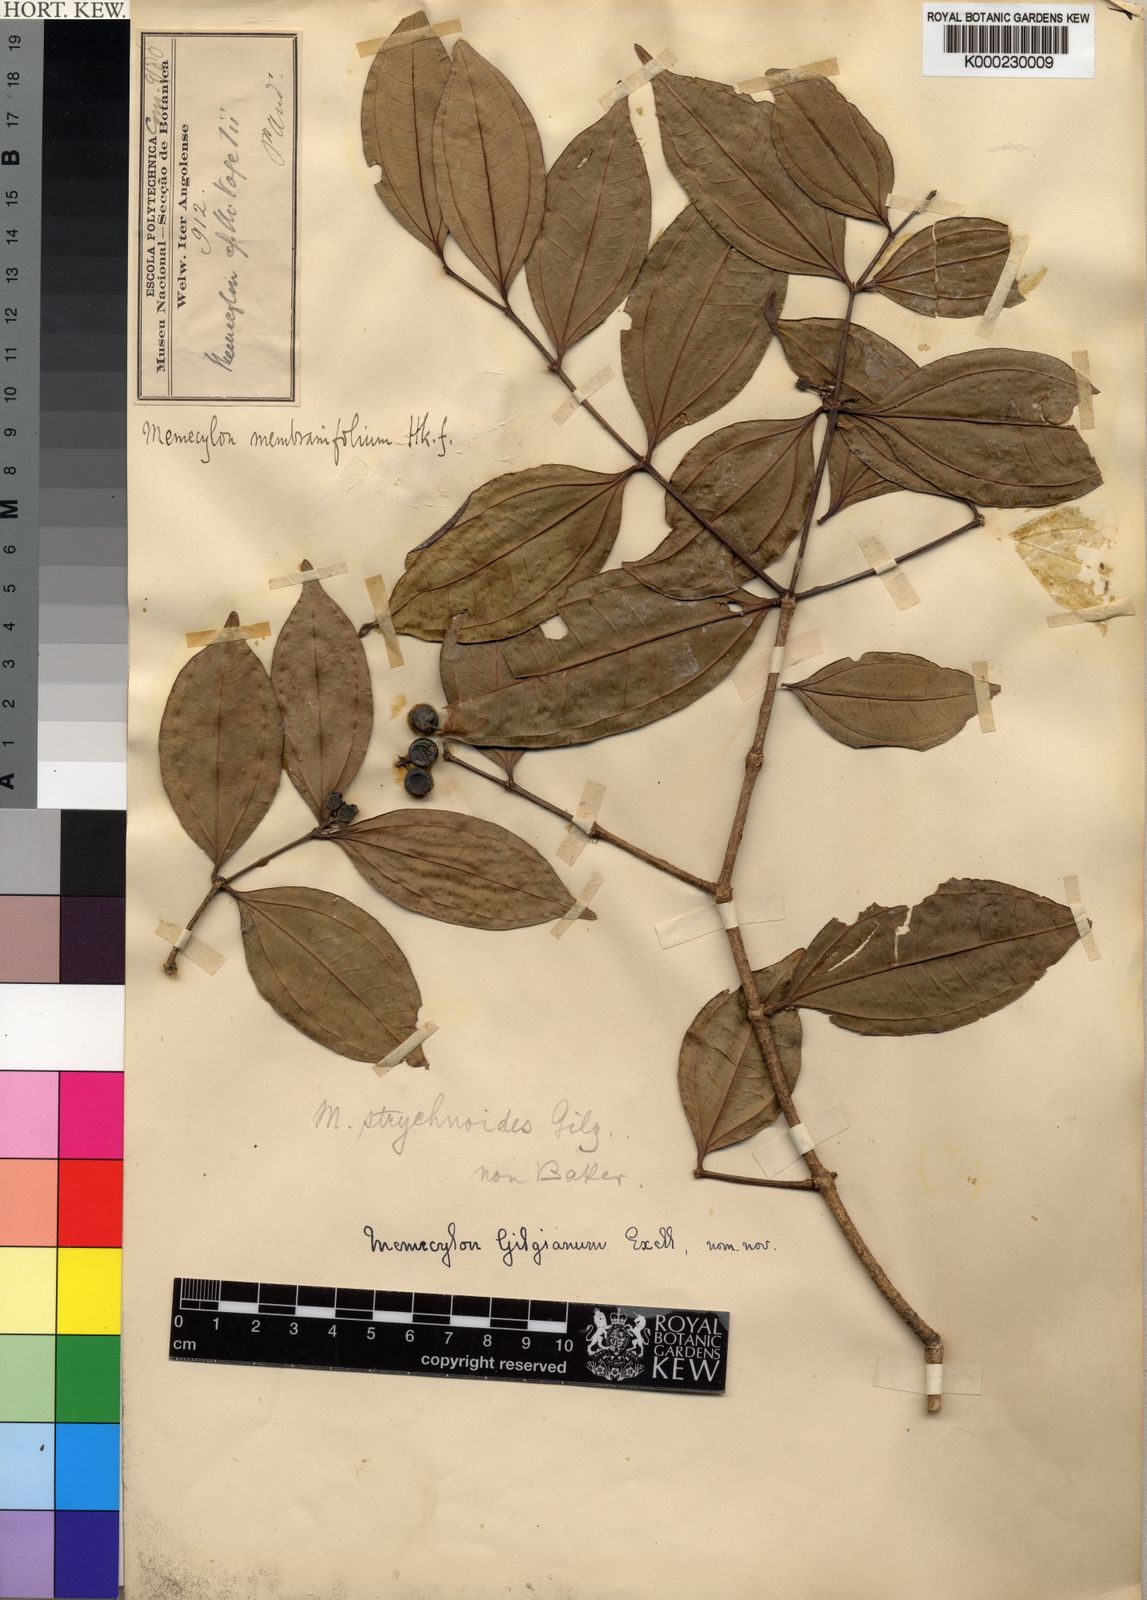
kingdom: Plantae
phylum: Tracheophyta
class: Magnoliopsida
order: Myrtales
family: Melastomataceae
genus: Warneckea
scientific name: Warneckea
